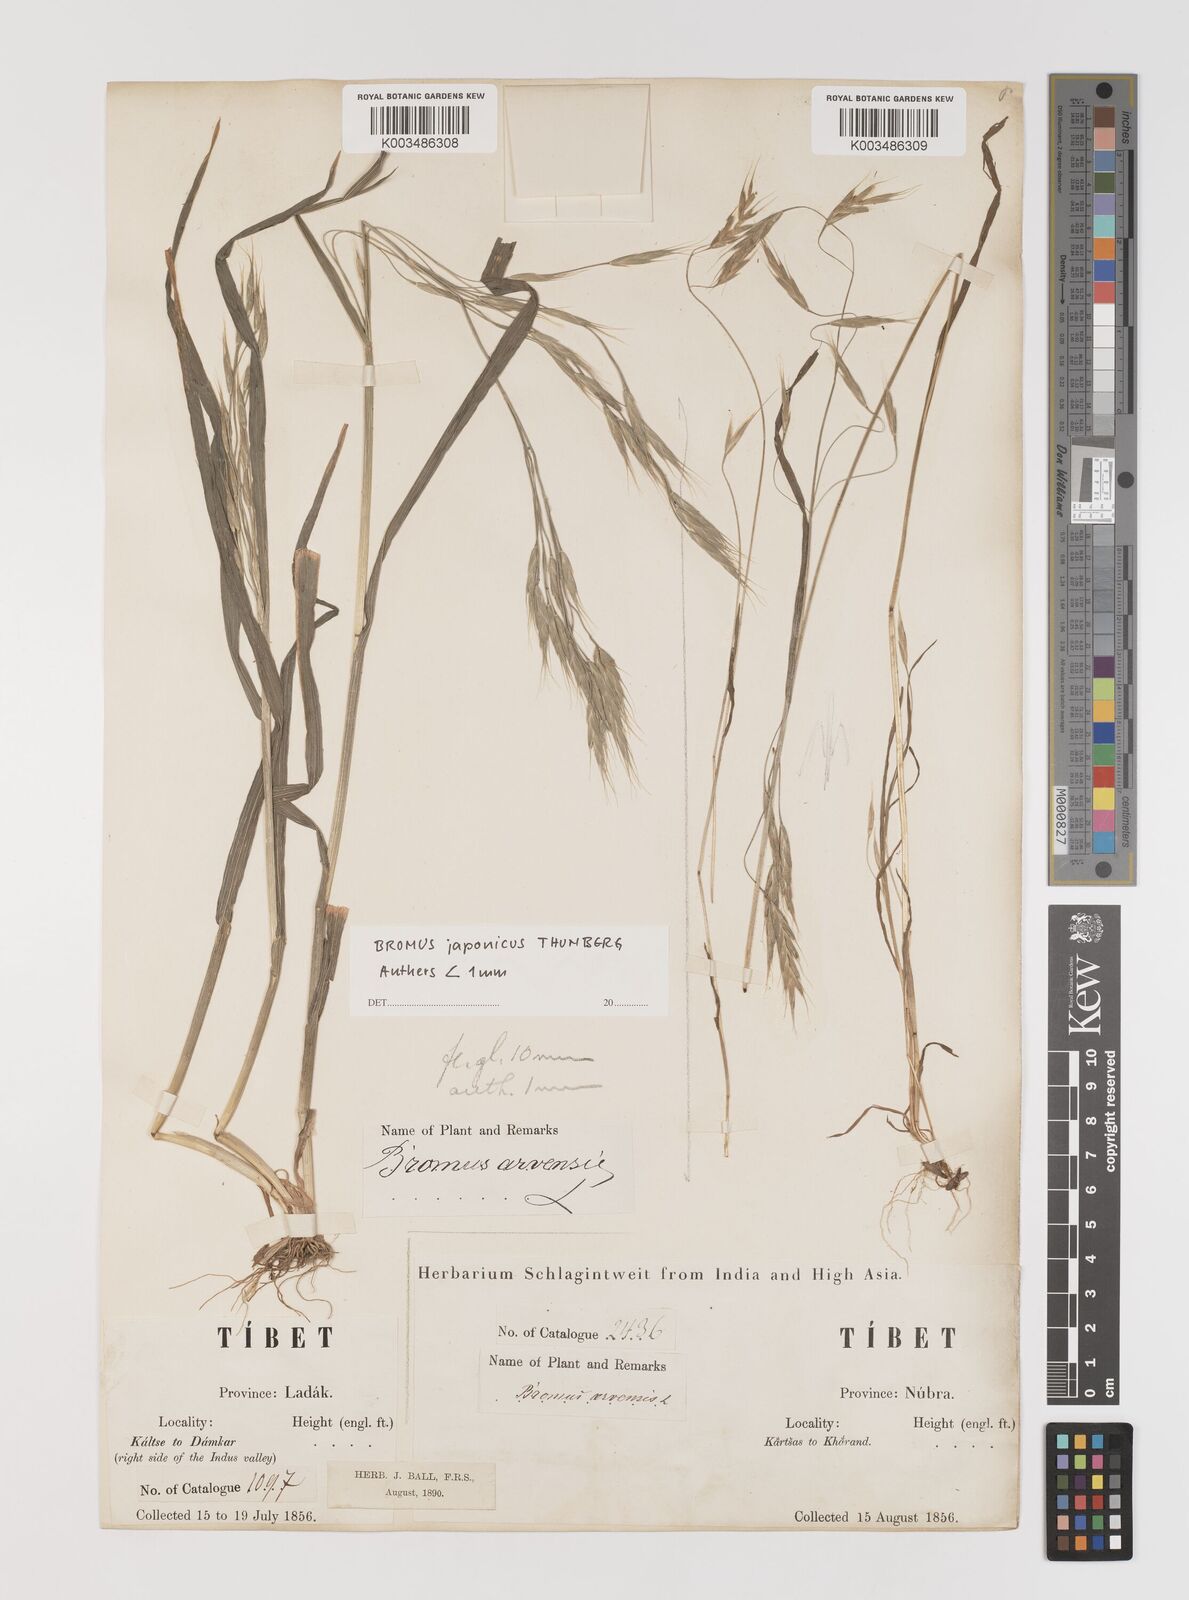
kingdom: Plantae
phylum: Tracheophyta
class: Liliopsida
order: Poales
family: Poaceae
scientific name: Poaceae
